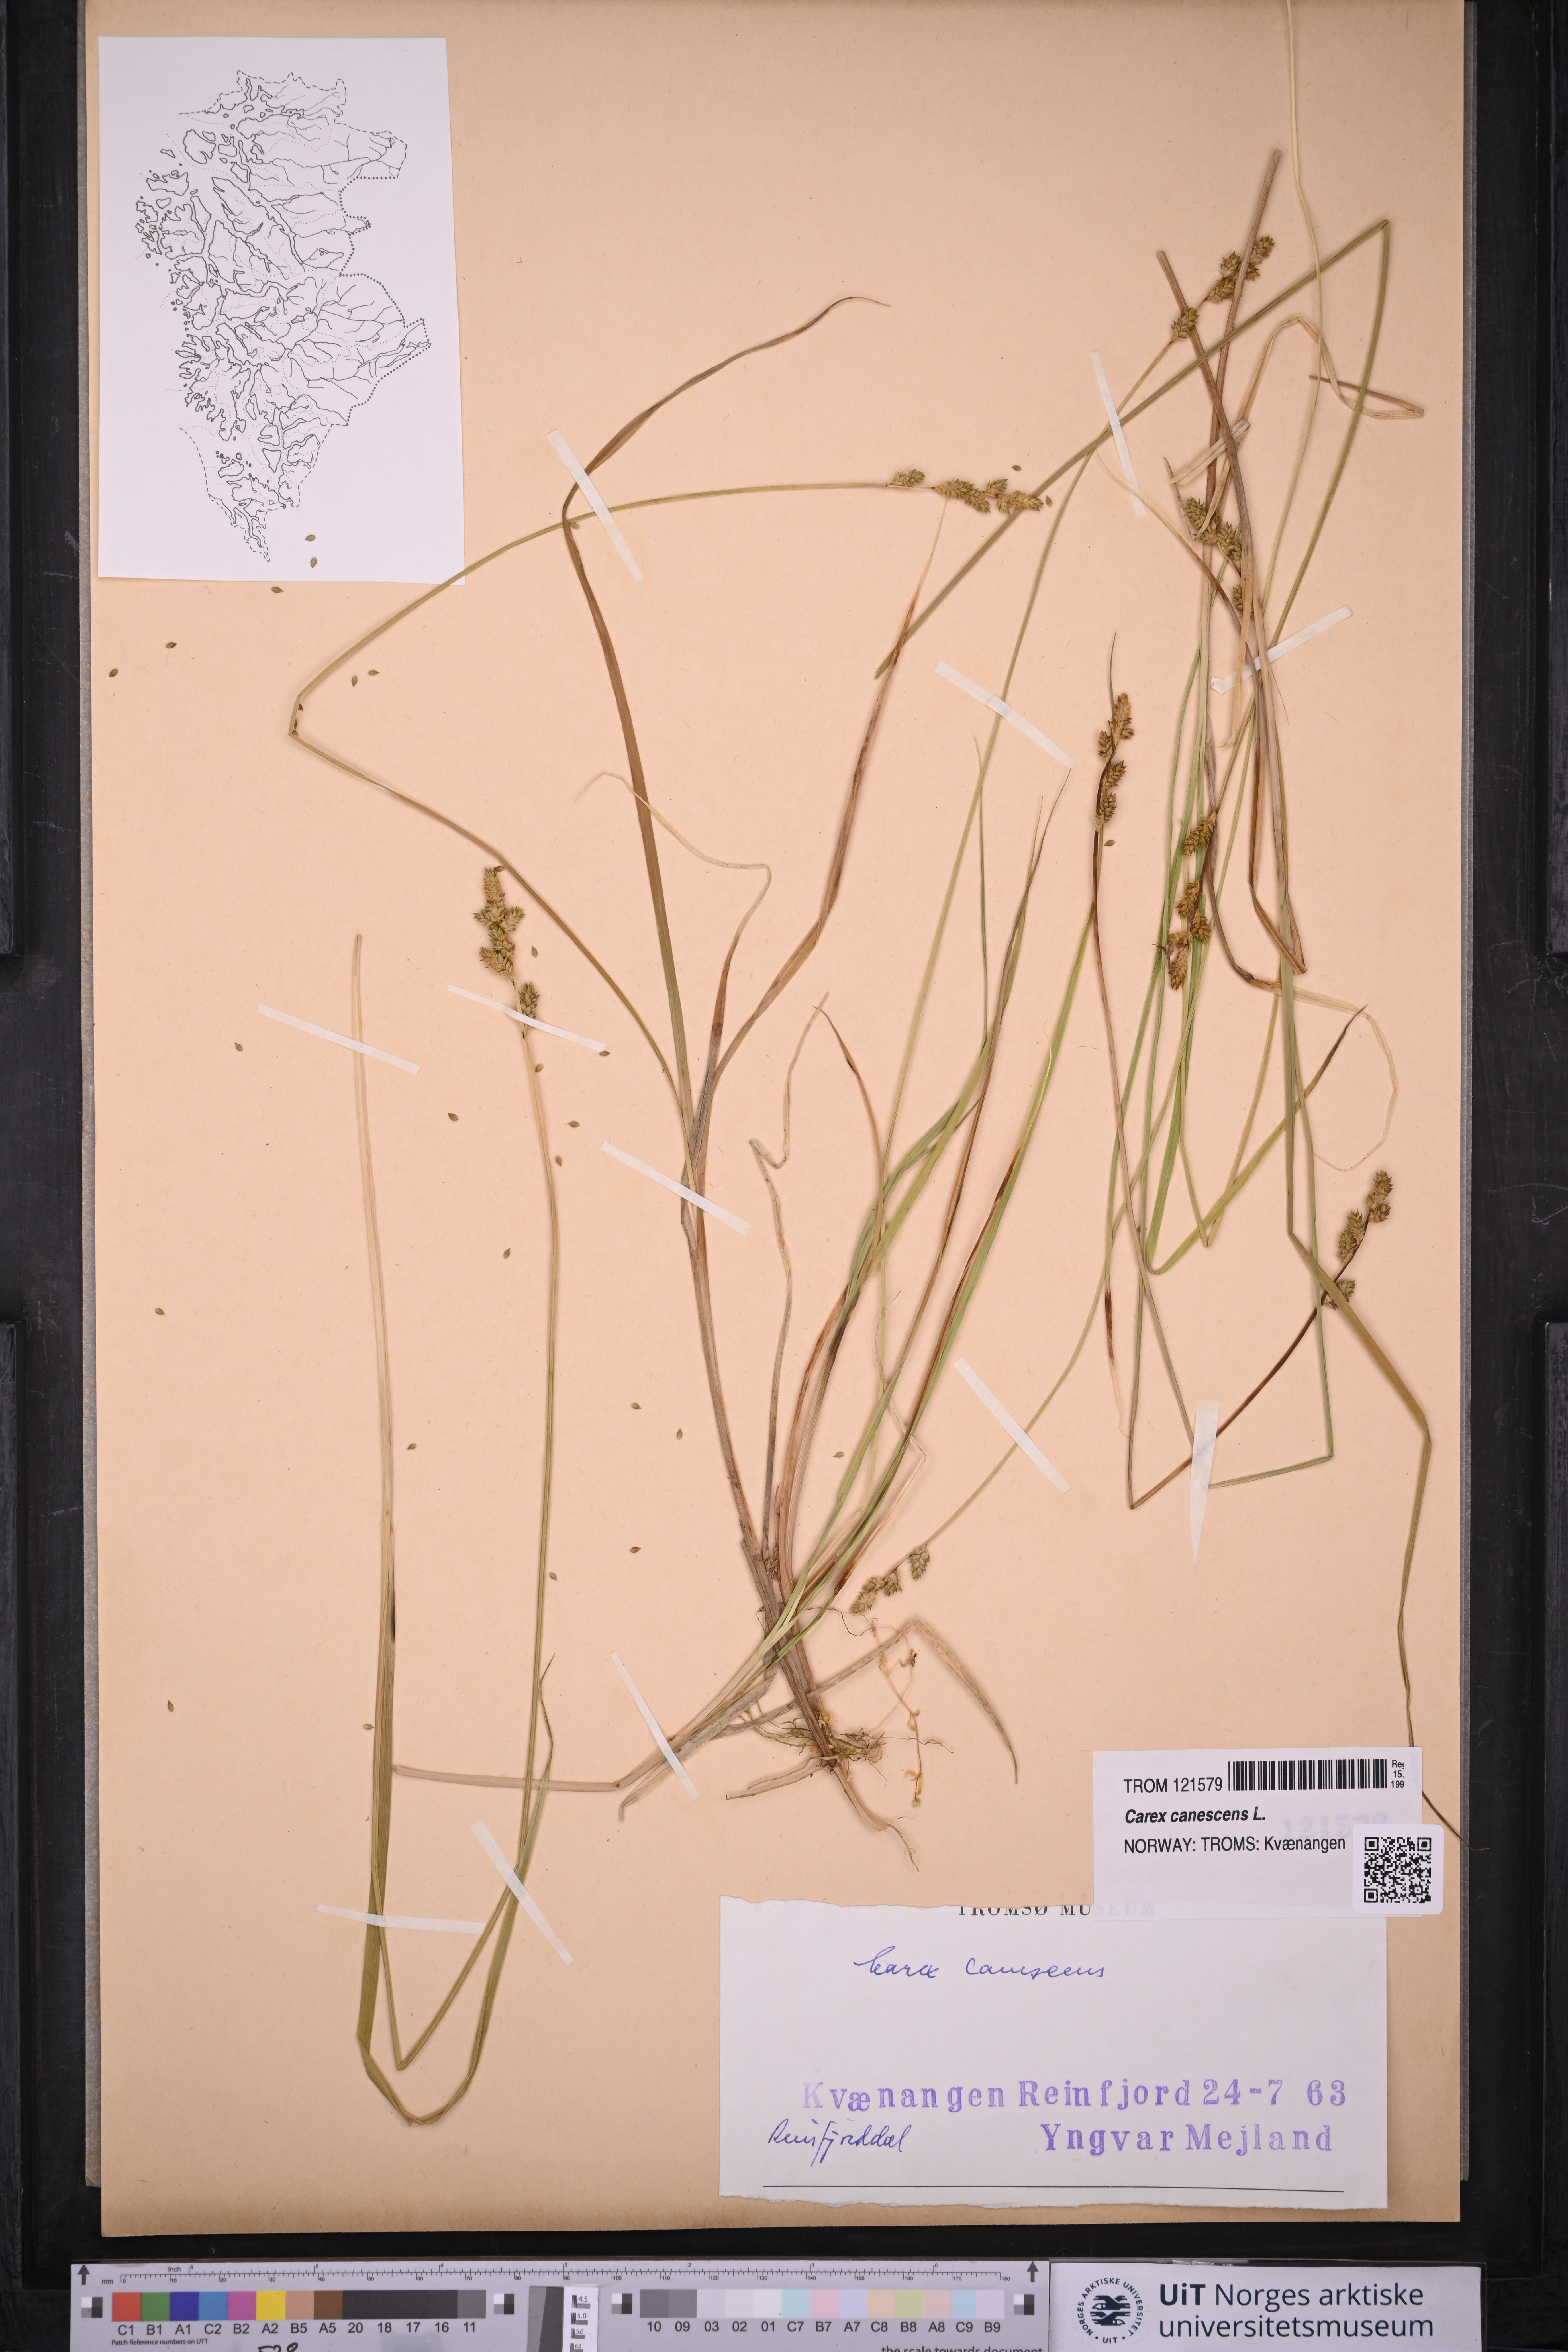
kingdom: Plantae
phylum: Tracheophyta
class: Liliopsida
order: Poales
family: Cyperaceae
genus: Carex
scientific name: Carex canescens
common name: White sedge
